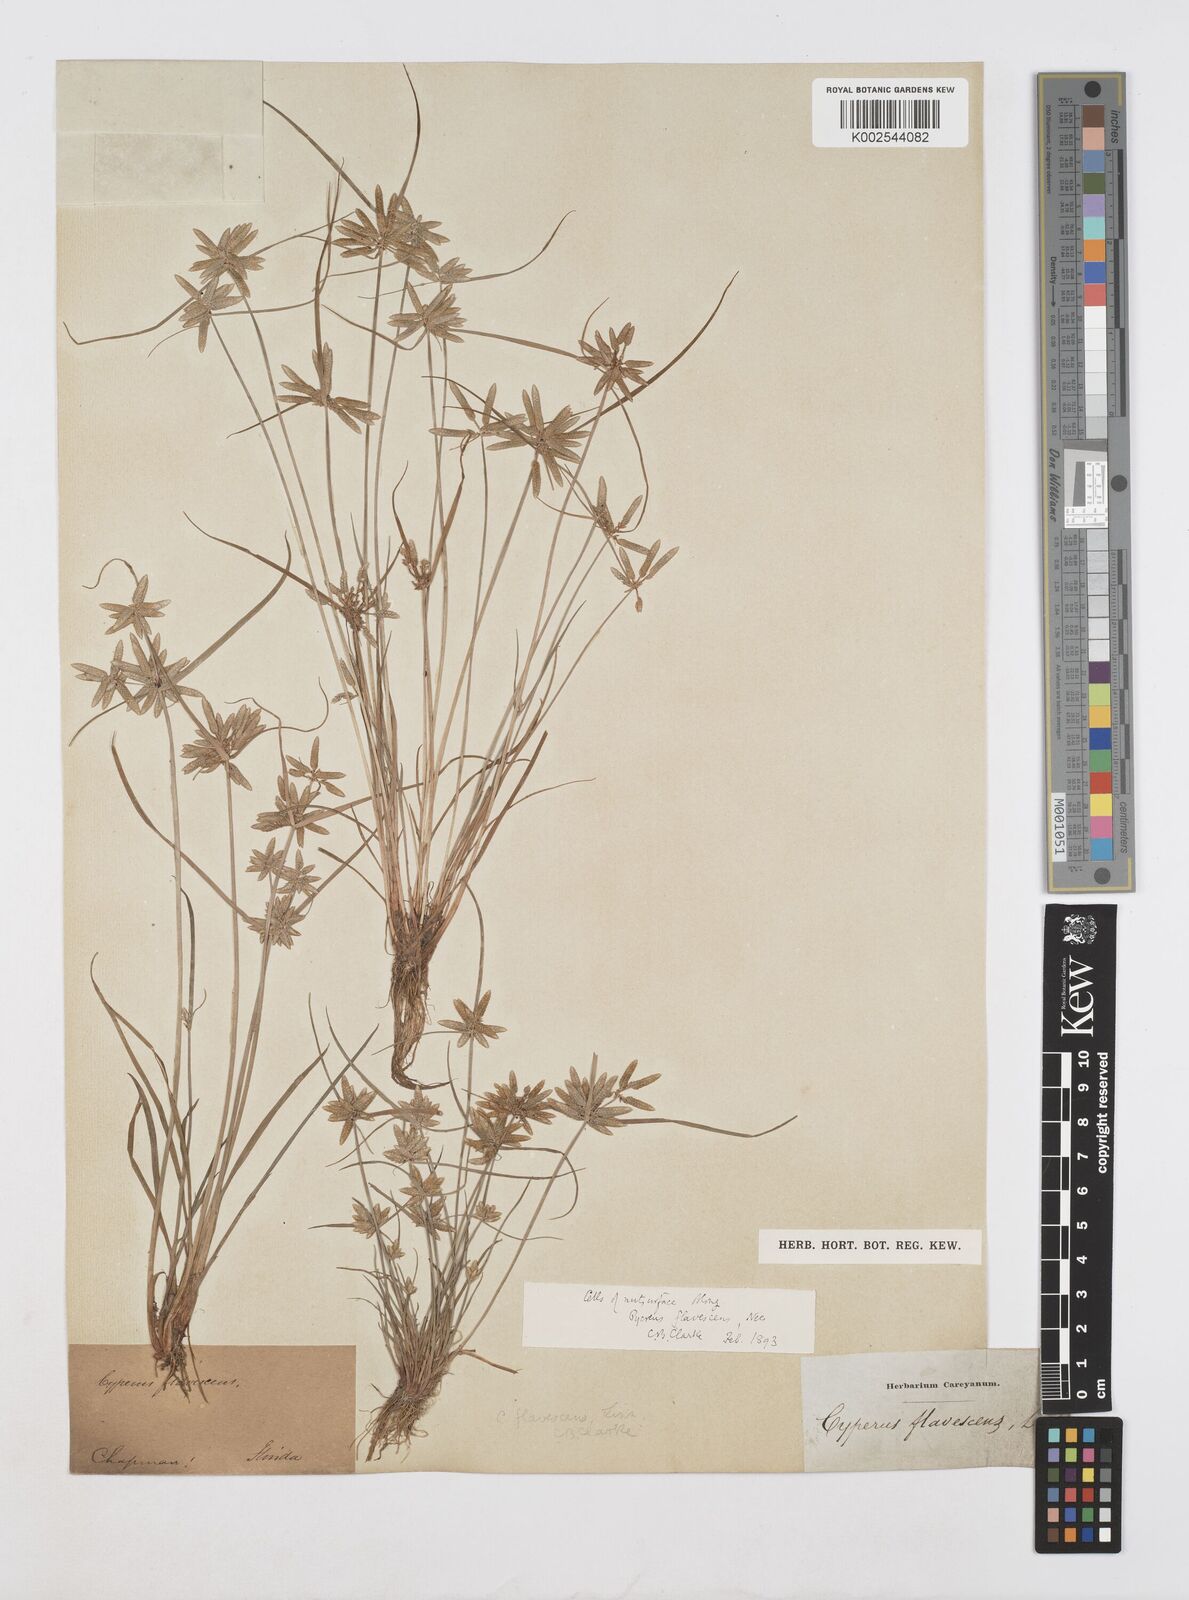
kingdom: Plantae
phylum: Tracheophyta
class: Liliopsida
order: Poales
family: Cyperaceae
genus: Cyperus
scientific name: Cyperus flavescens
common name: Yellow galingale
